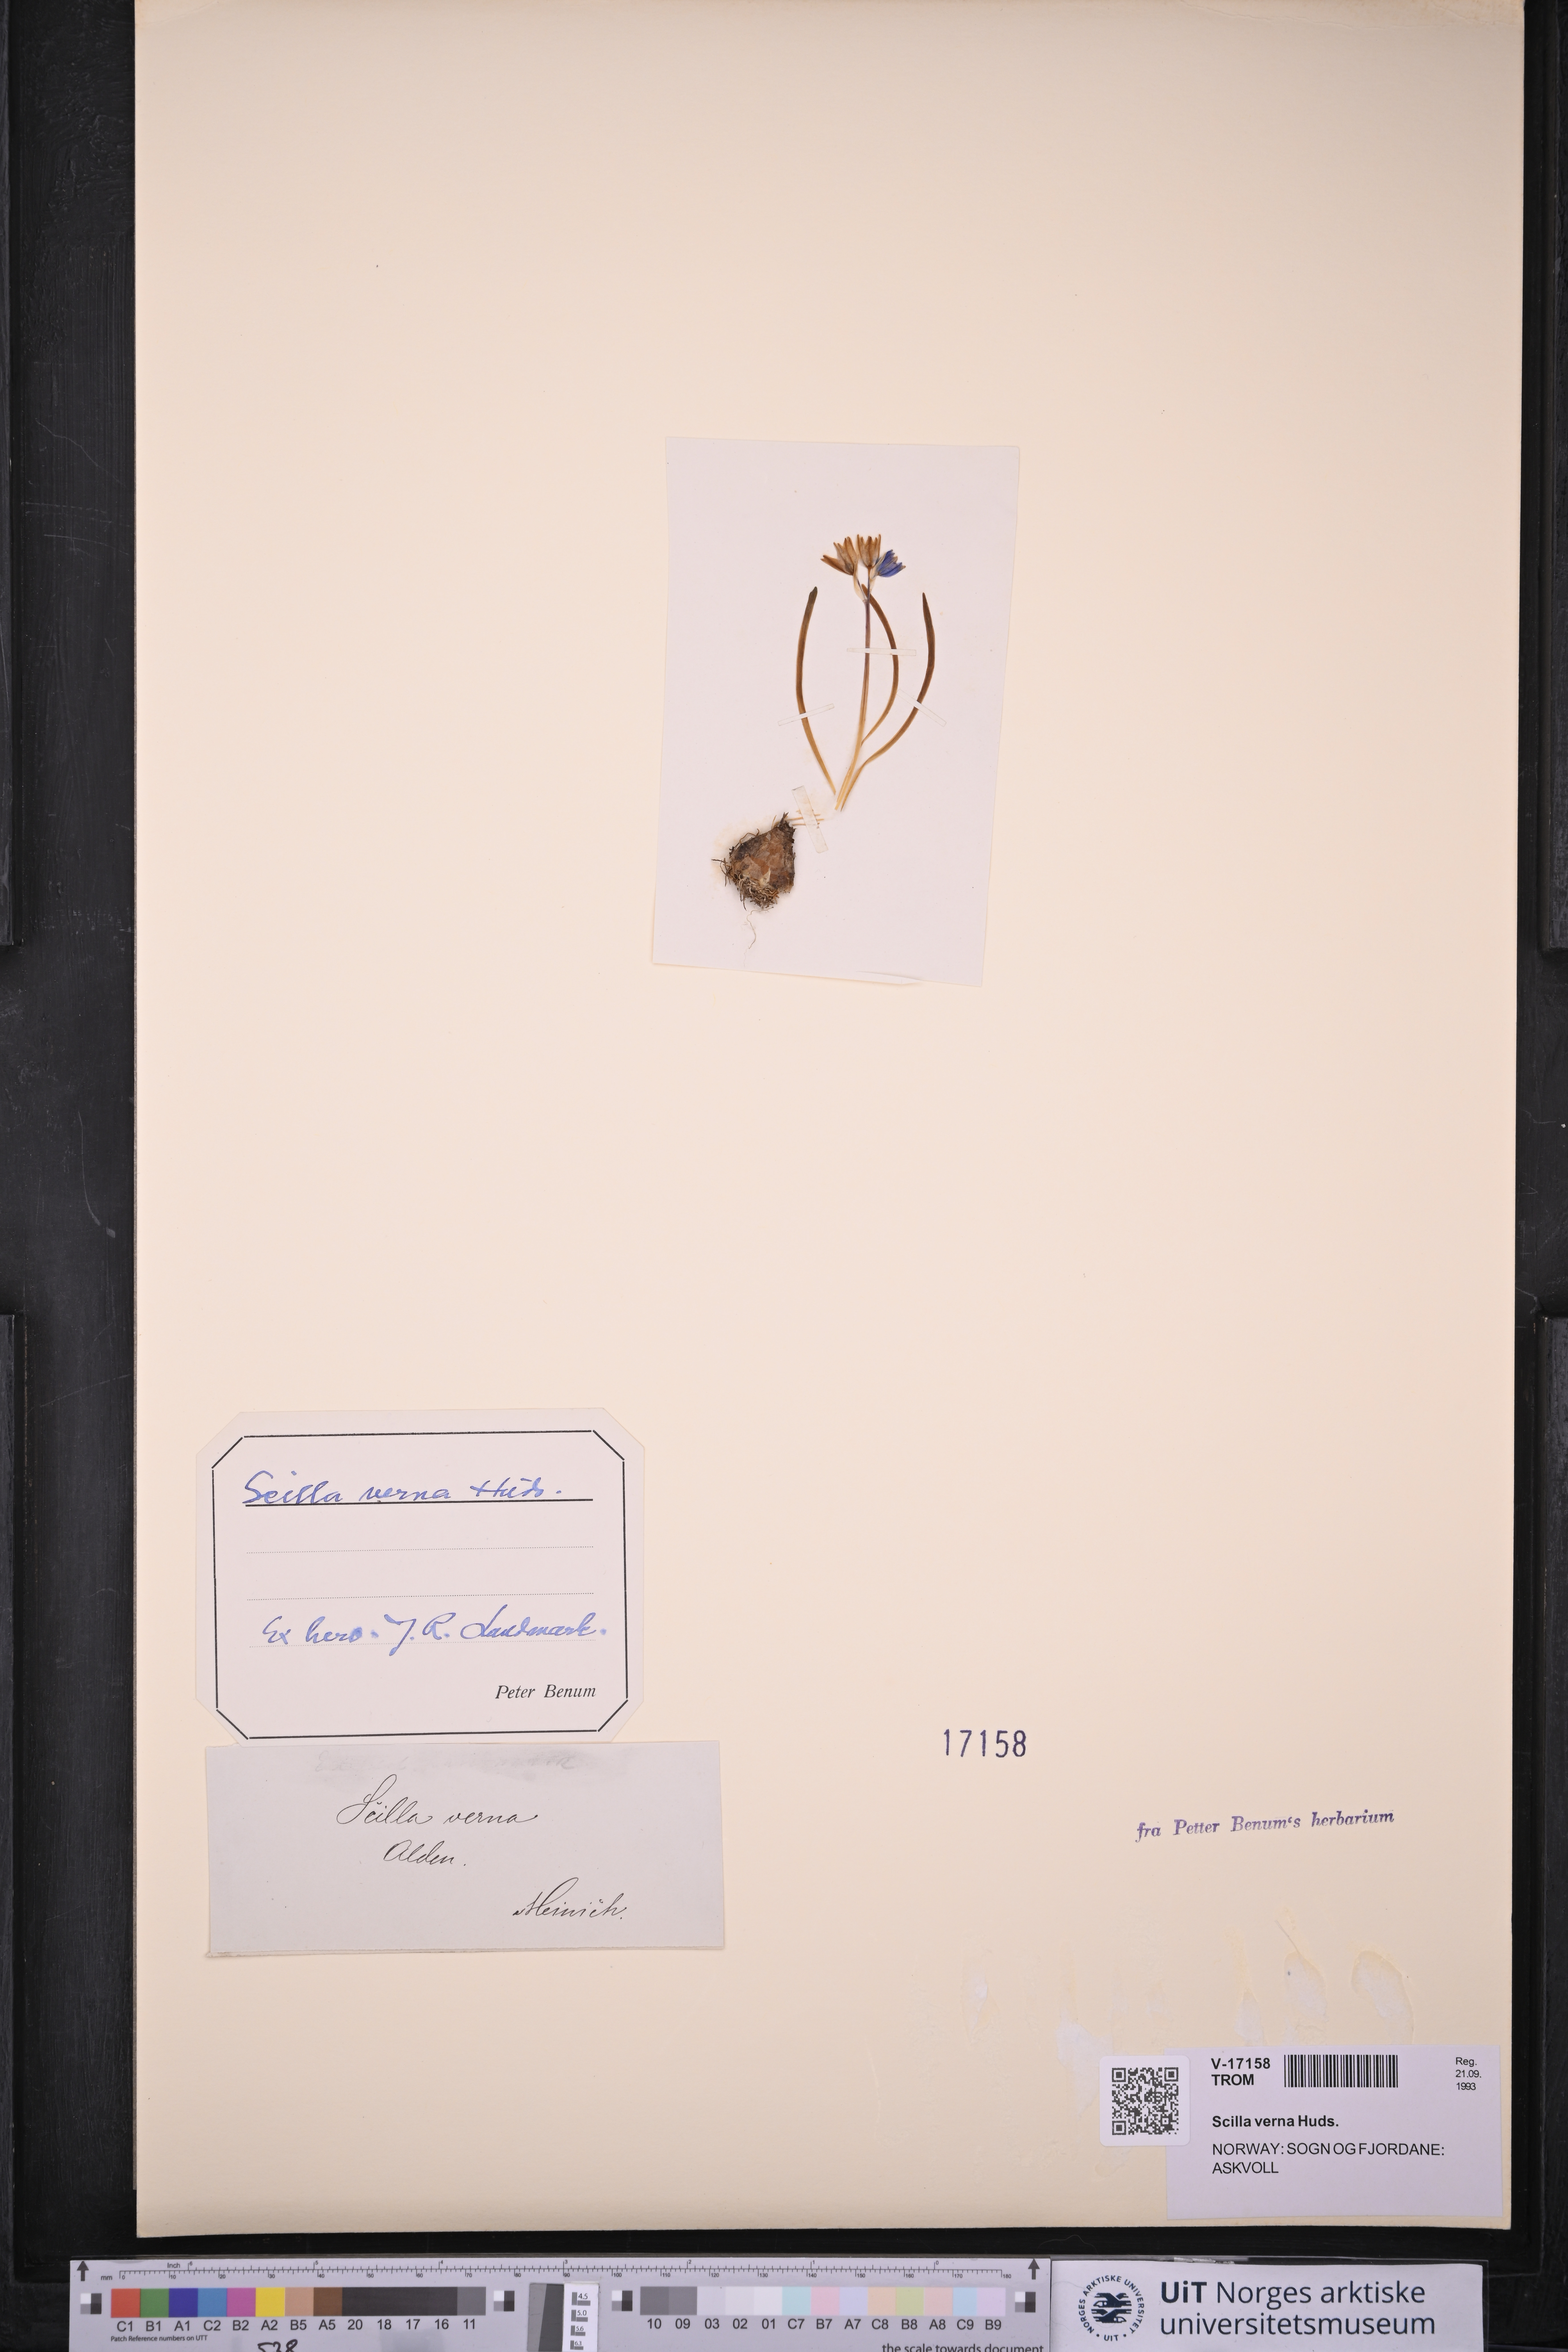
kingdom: Plantae
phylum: Tracheophyta
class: Liliopsida
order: Asparagales
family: Asparagaceae
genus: Scilla
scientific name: Scilla verna
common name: Spring squill
